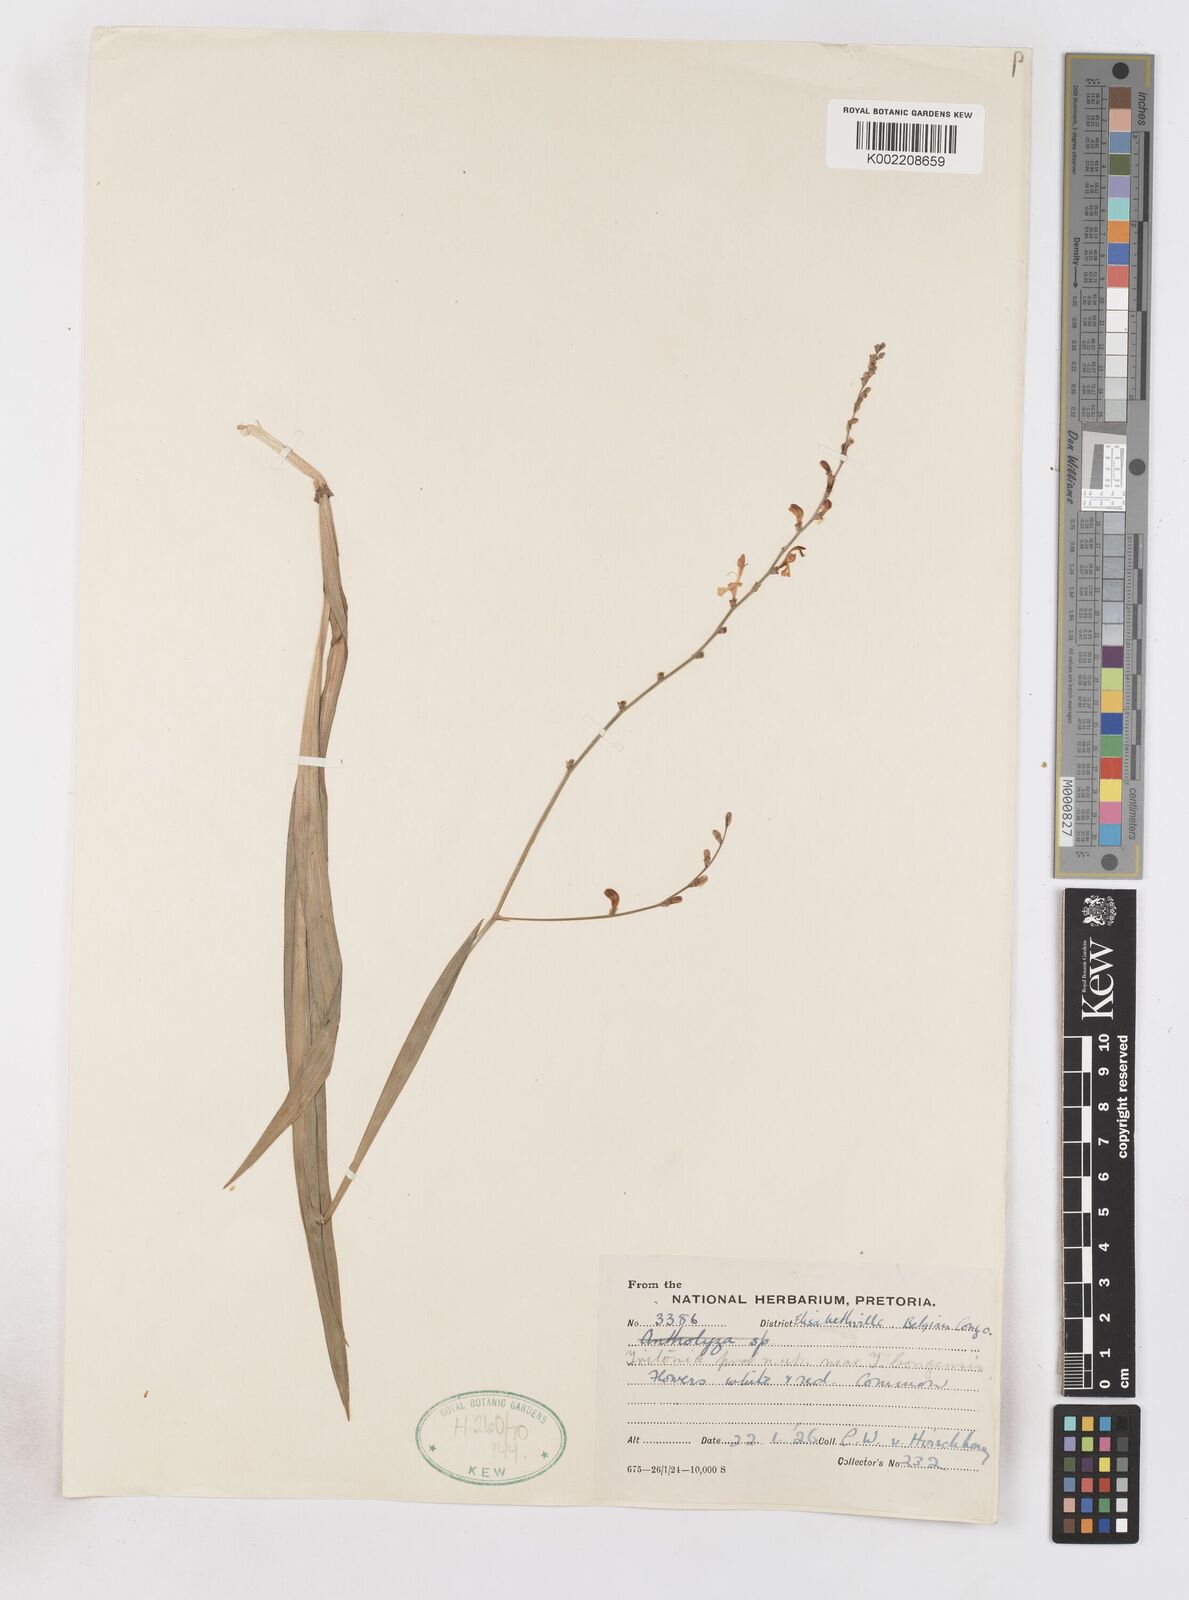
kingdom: Plantae
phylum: Tracheophyta
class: Liliopsida
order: Asparagales
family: Iridaceae
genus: Zygotritonia
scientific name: Zygotritonia nyassana
